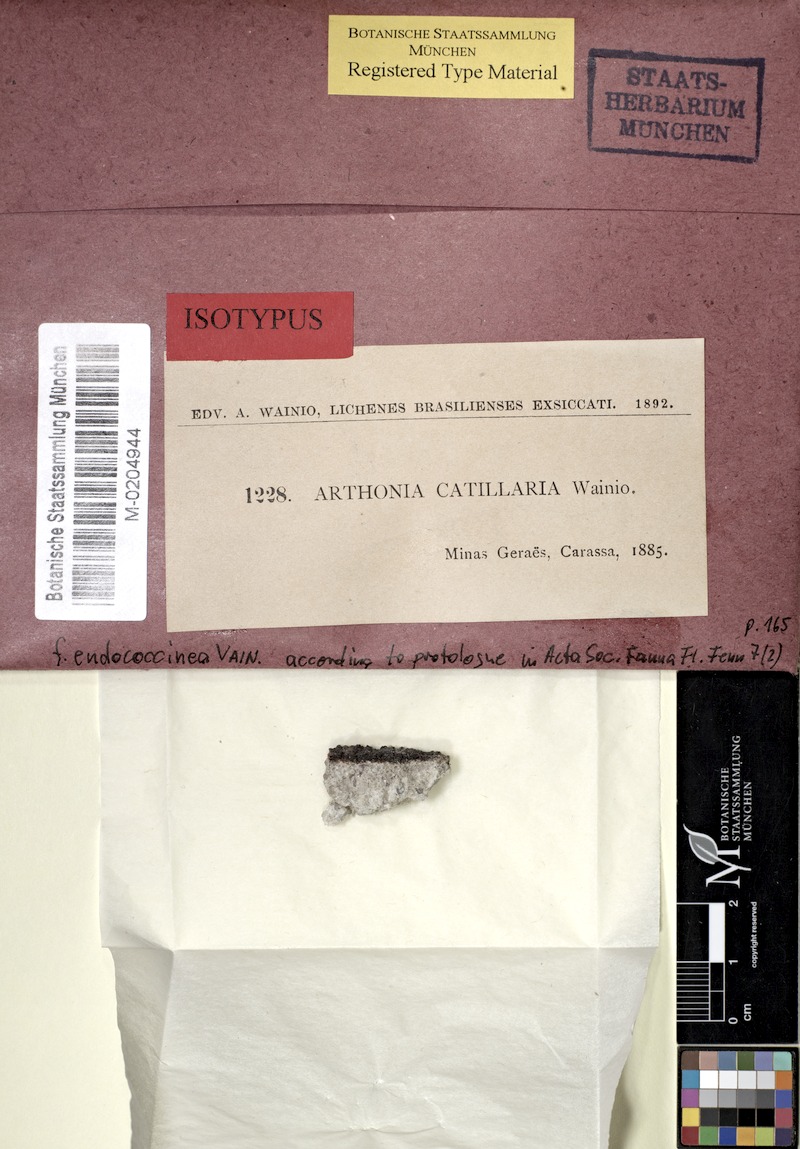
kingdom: Fungi
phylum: Ascomycota
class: Arthoniomycetes
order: Arthoniales
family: Arthoniaceae
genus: Arthonia
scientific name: Arthonia
